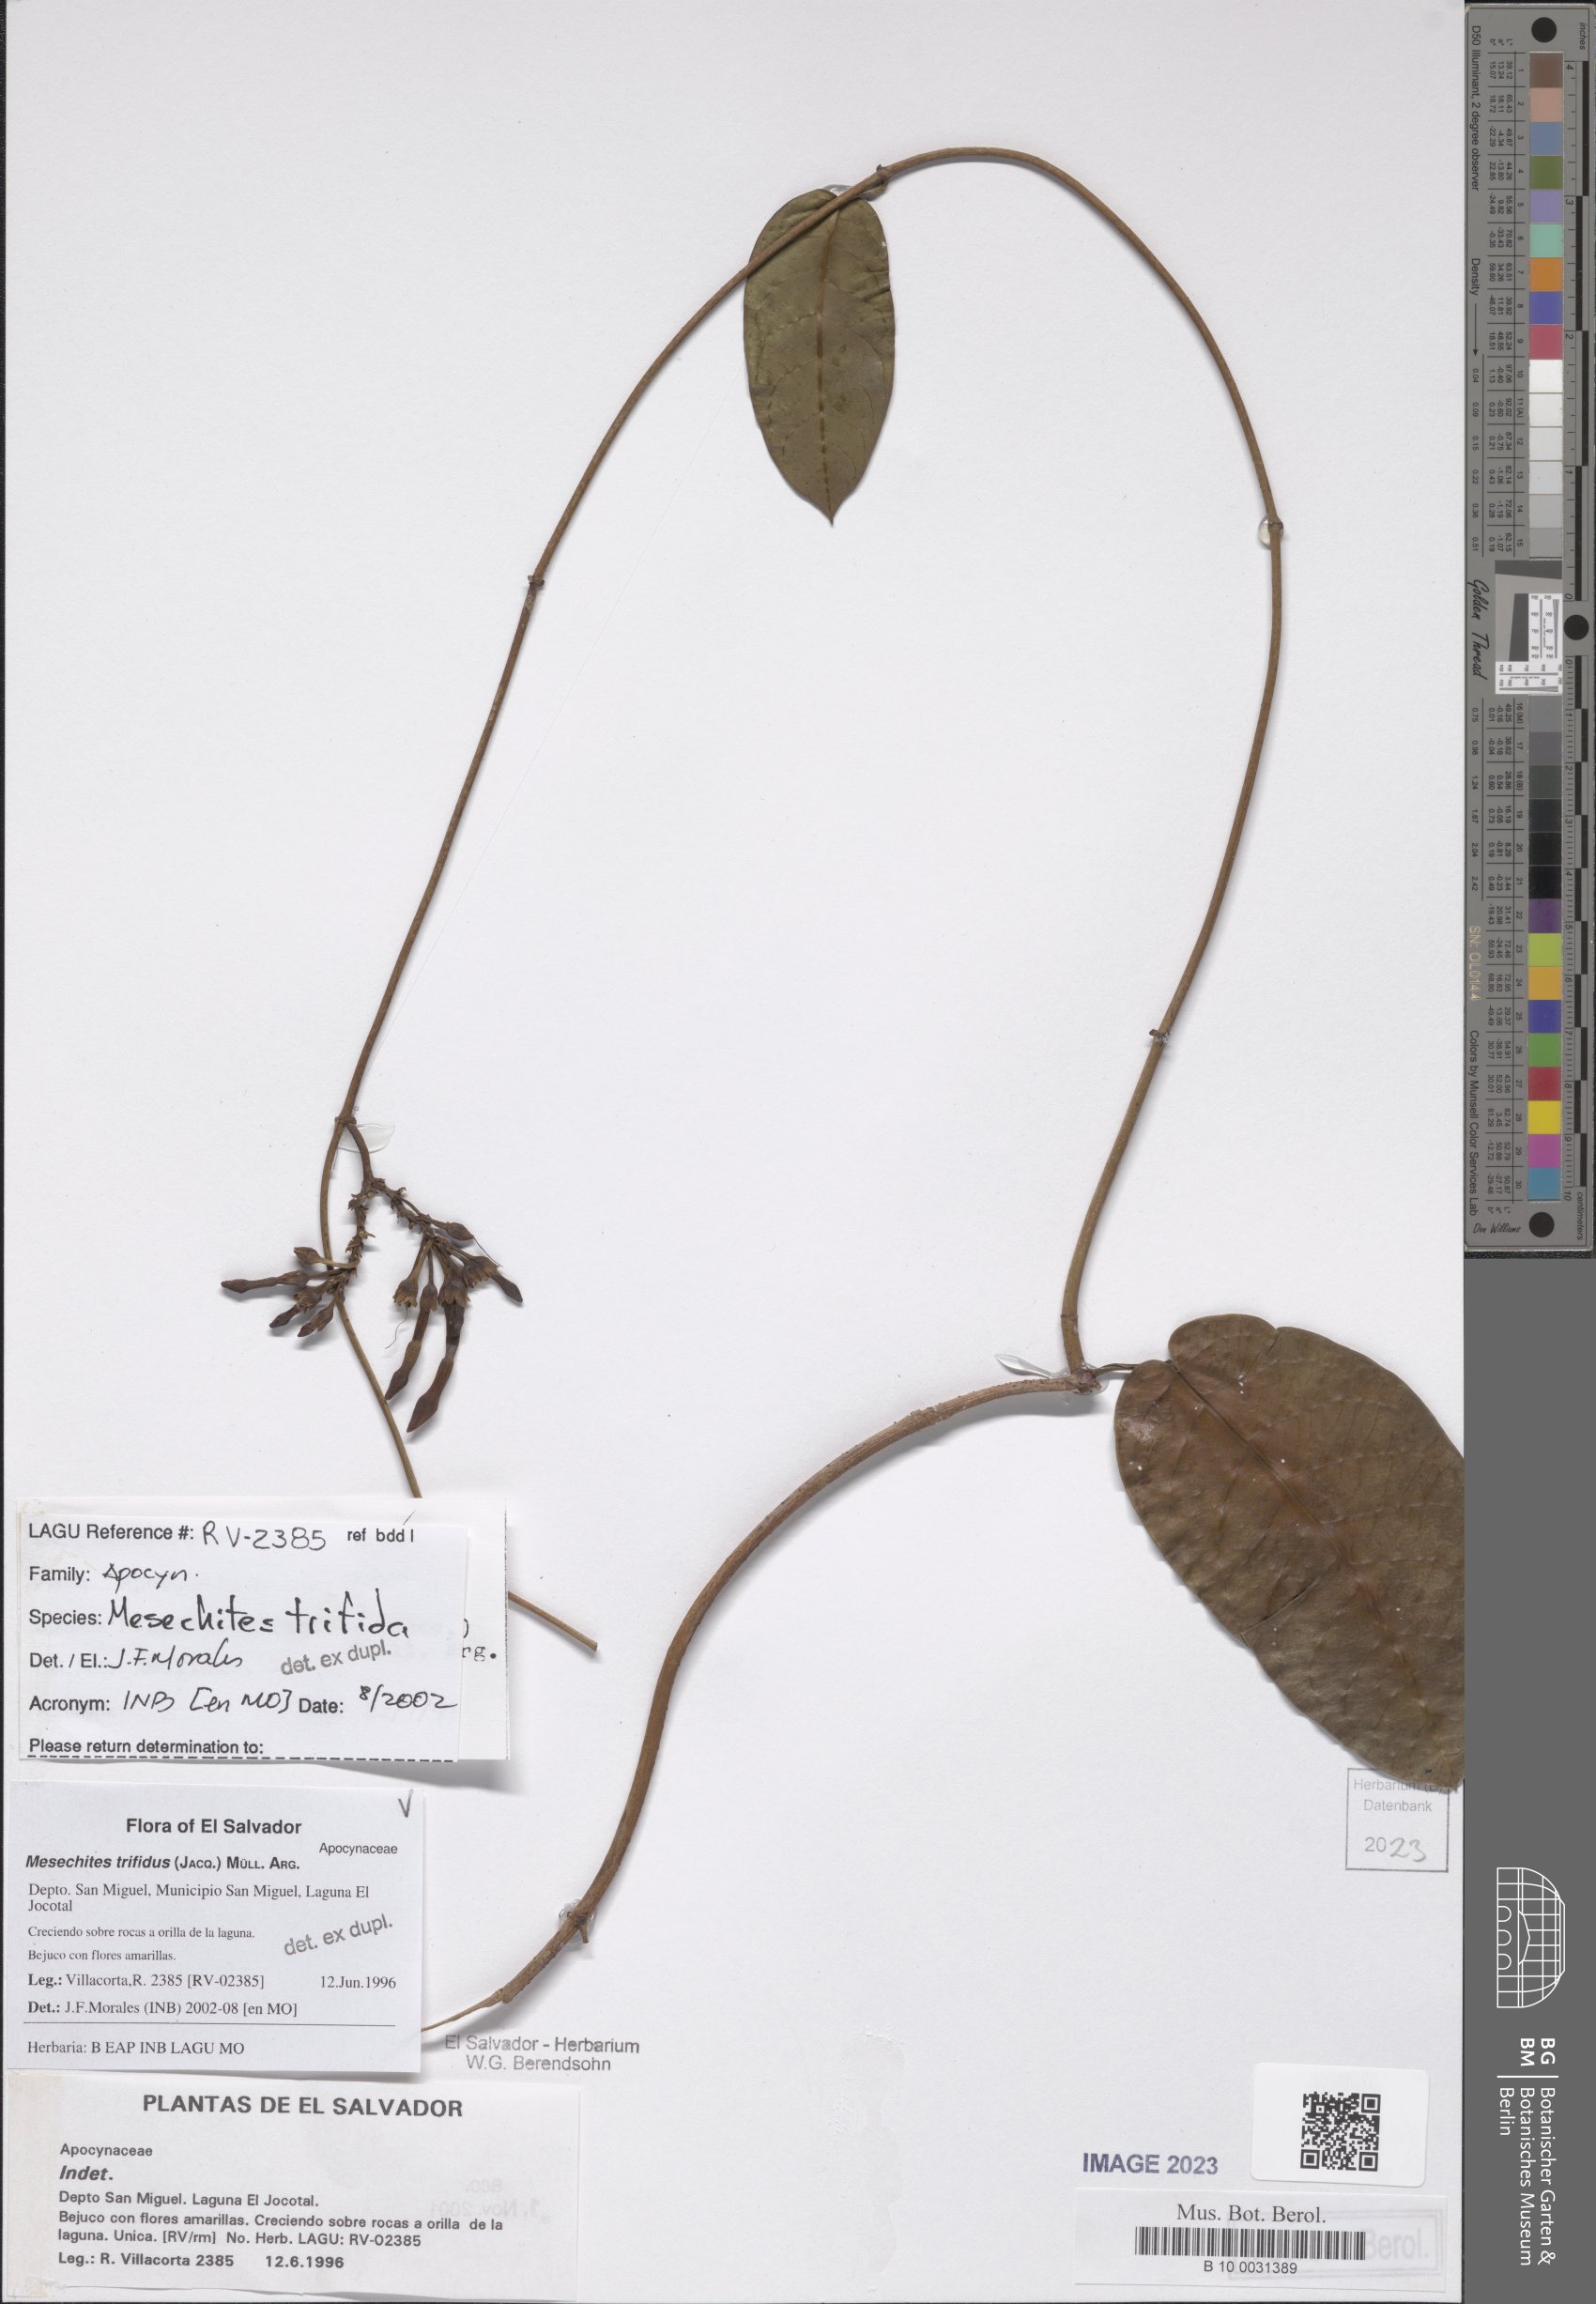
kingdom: Plantae
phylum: Tracheophyta
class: Magnoliopsida
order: Gentianales
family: Apocynaceae
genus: Mesechites
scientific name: Mesechites trifidus
